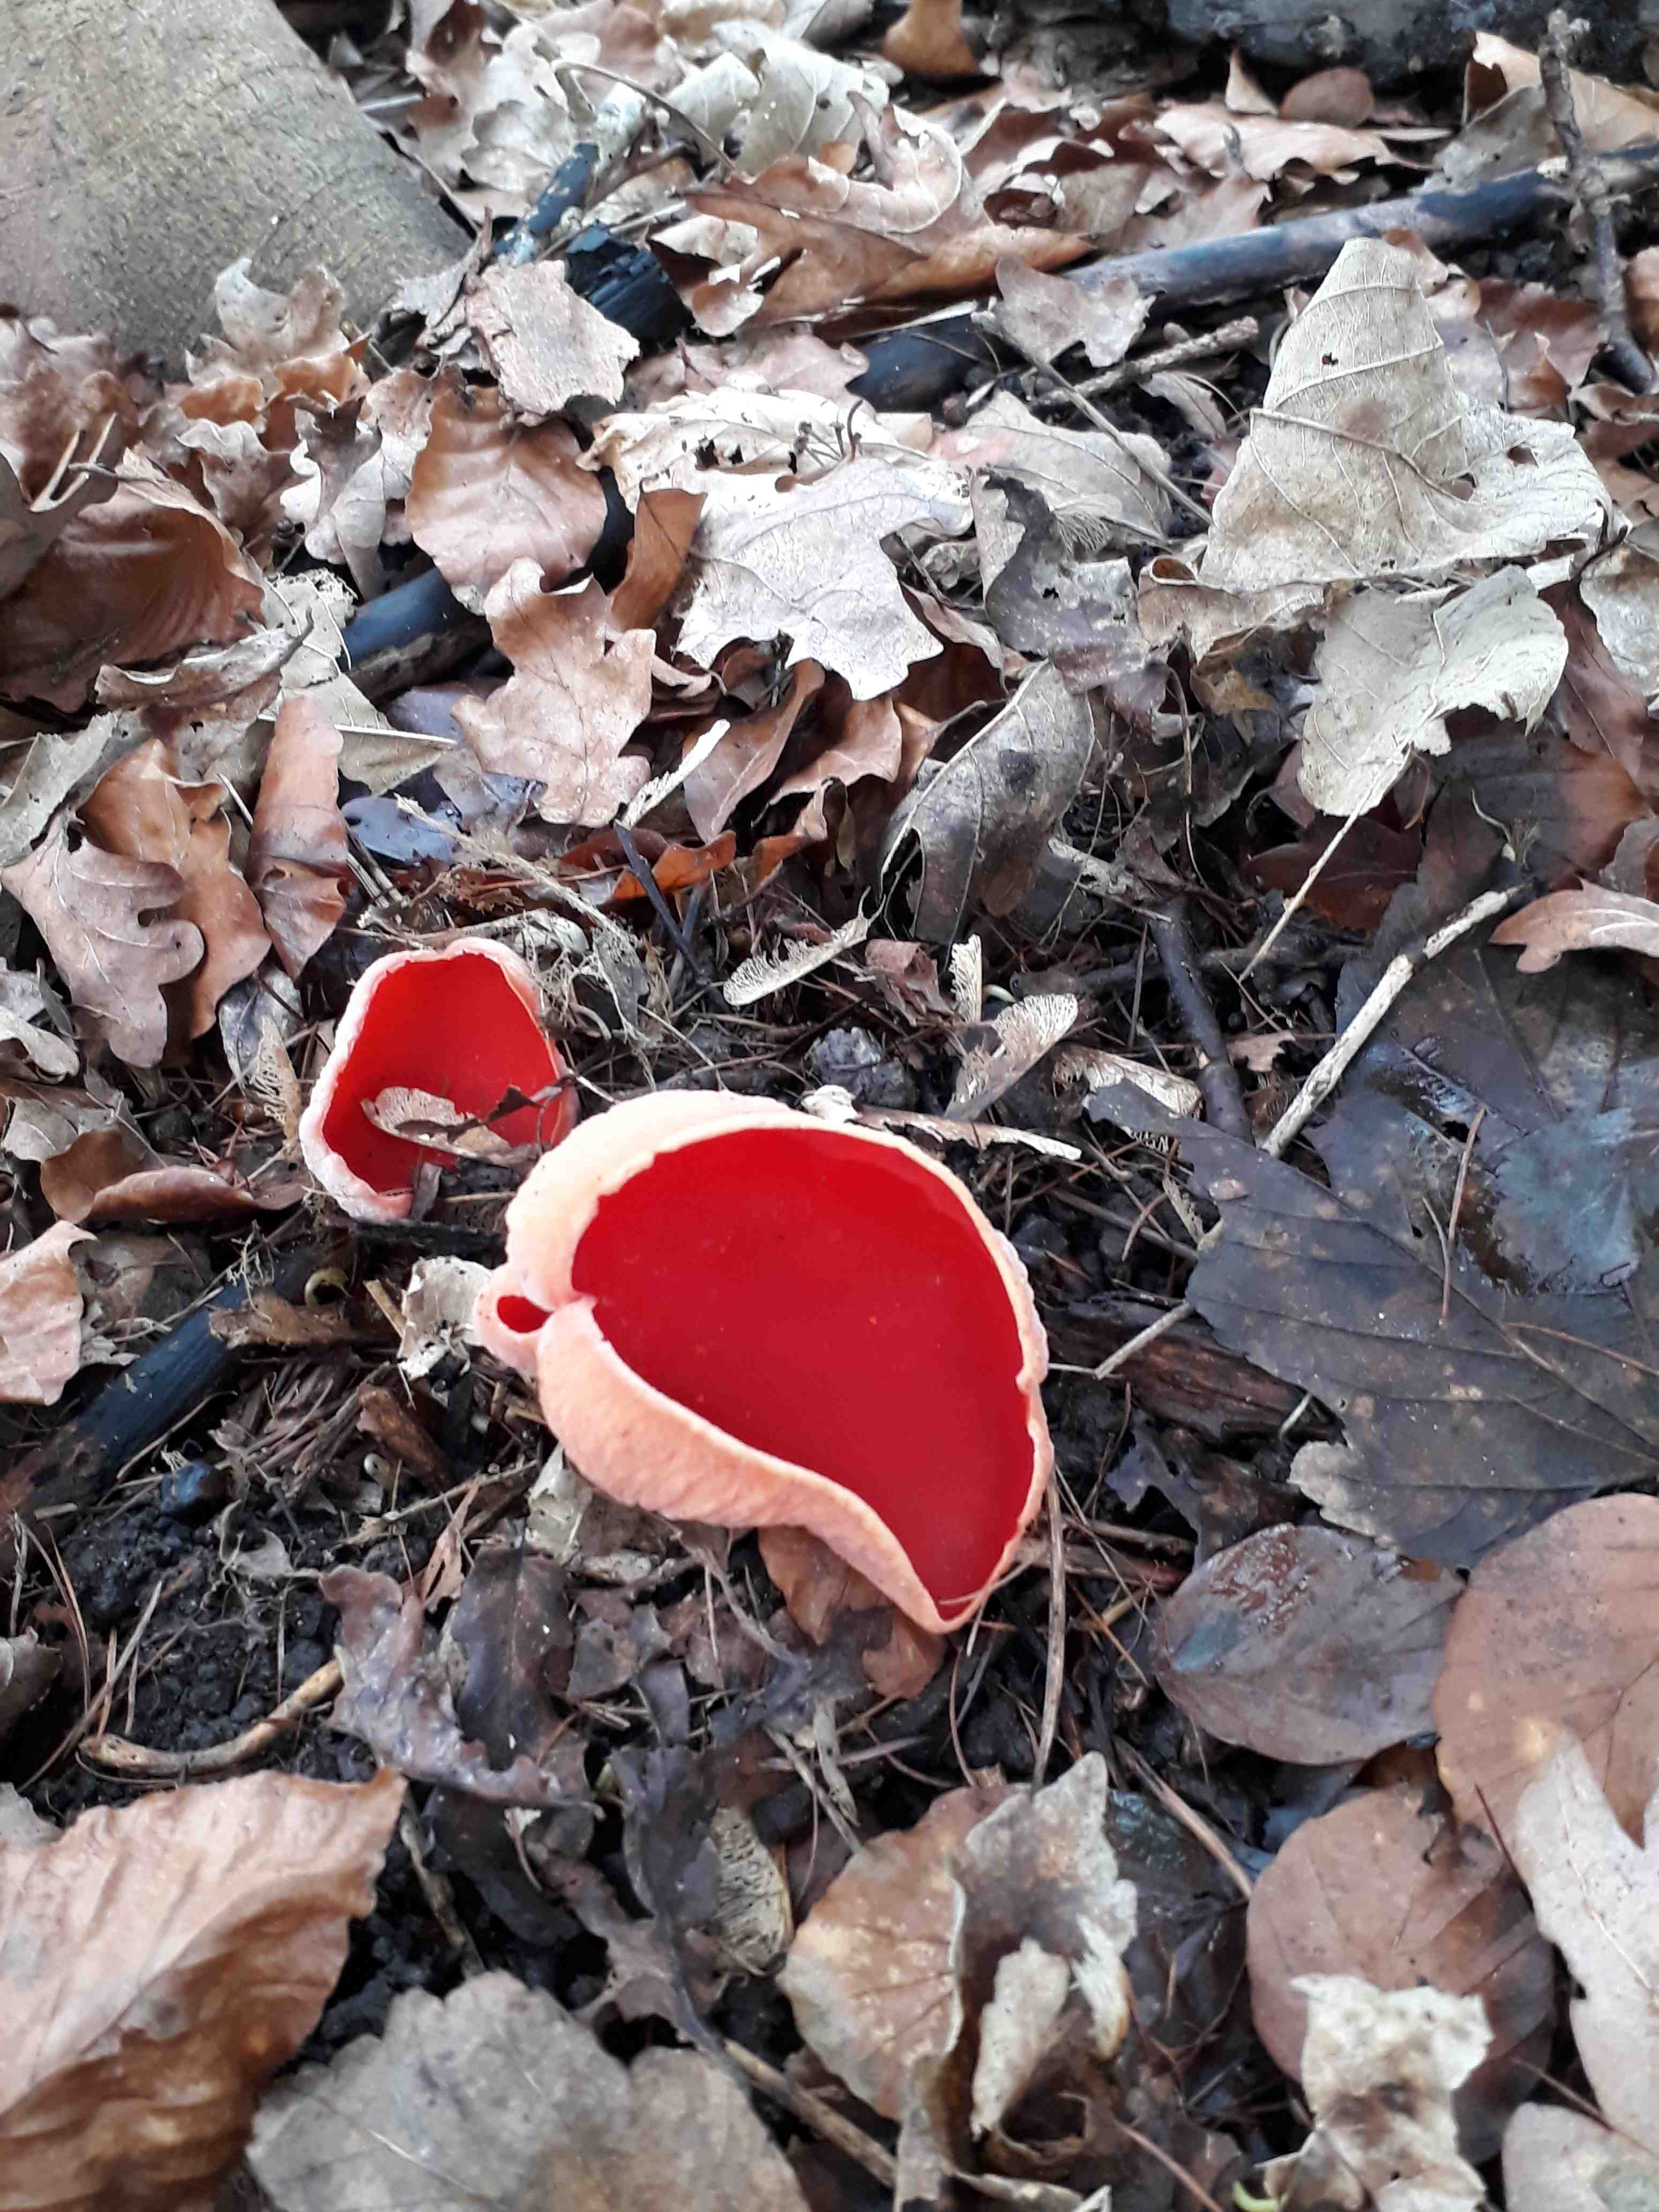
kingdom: Fungi
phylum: Ascomycota
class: Pezizomycetes
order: Pezizales
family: Sarcoscyphaceae
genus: Sarcoscypha
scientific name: Sarcoscypha
